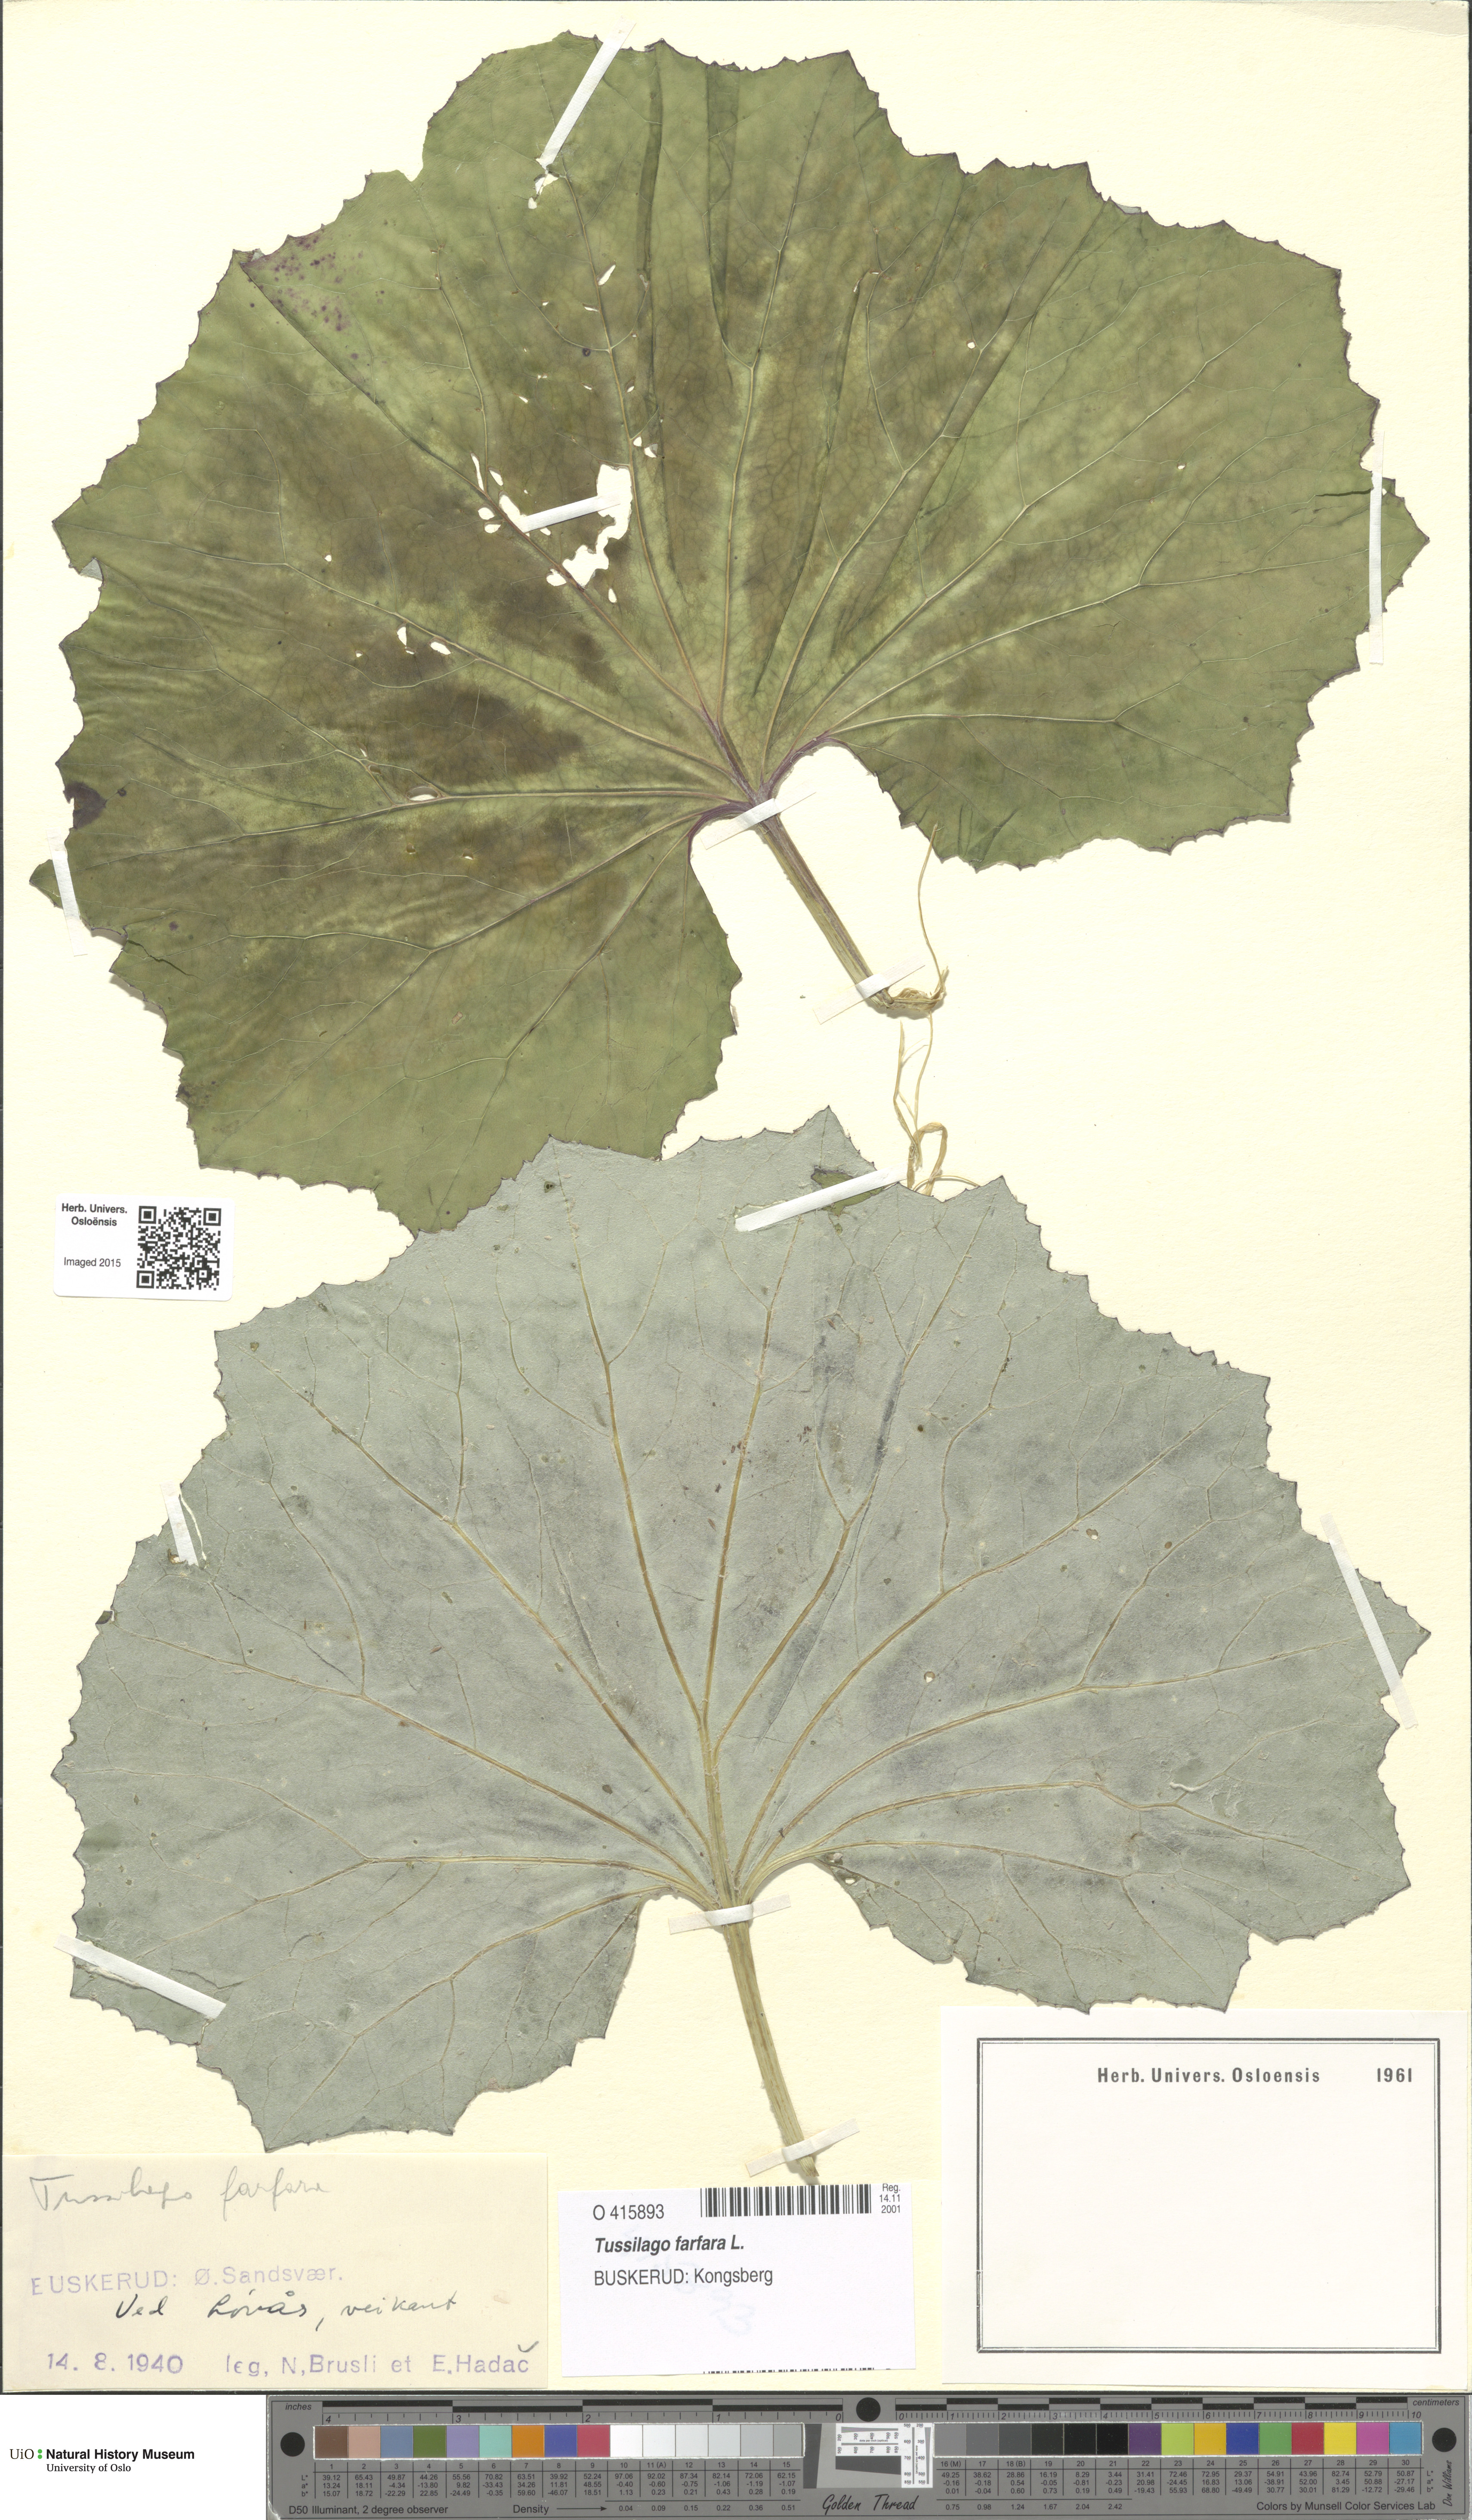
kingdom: Plantae
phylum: Tracheophyta
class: Magnoliopsida
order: Asterales
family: Asteraceae
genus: Tussilago
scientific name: Tussilago farfara
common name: Coltsfoot
